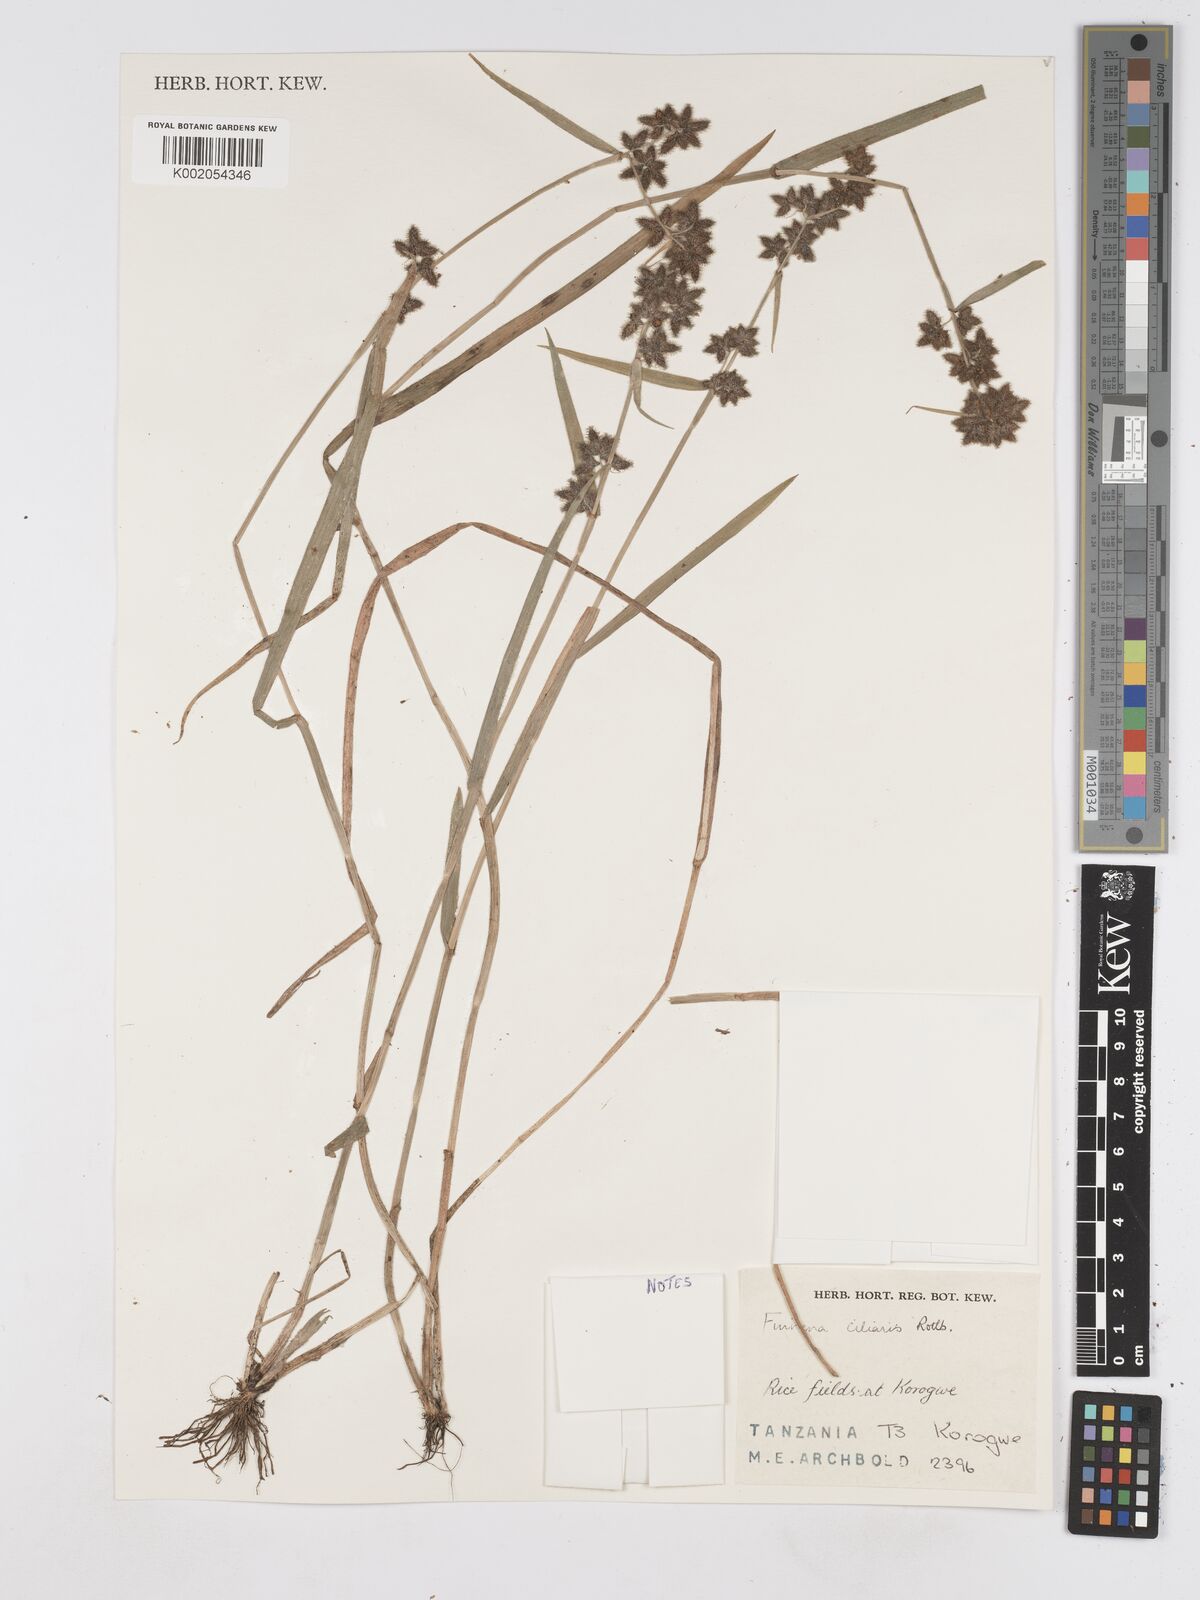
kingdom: Plantae
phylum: Tracheophyta
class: Liliopsida
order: Poales
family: Cyperaceae
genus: Fuirena
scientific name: Fuirena ciliaris
